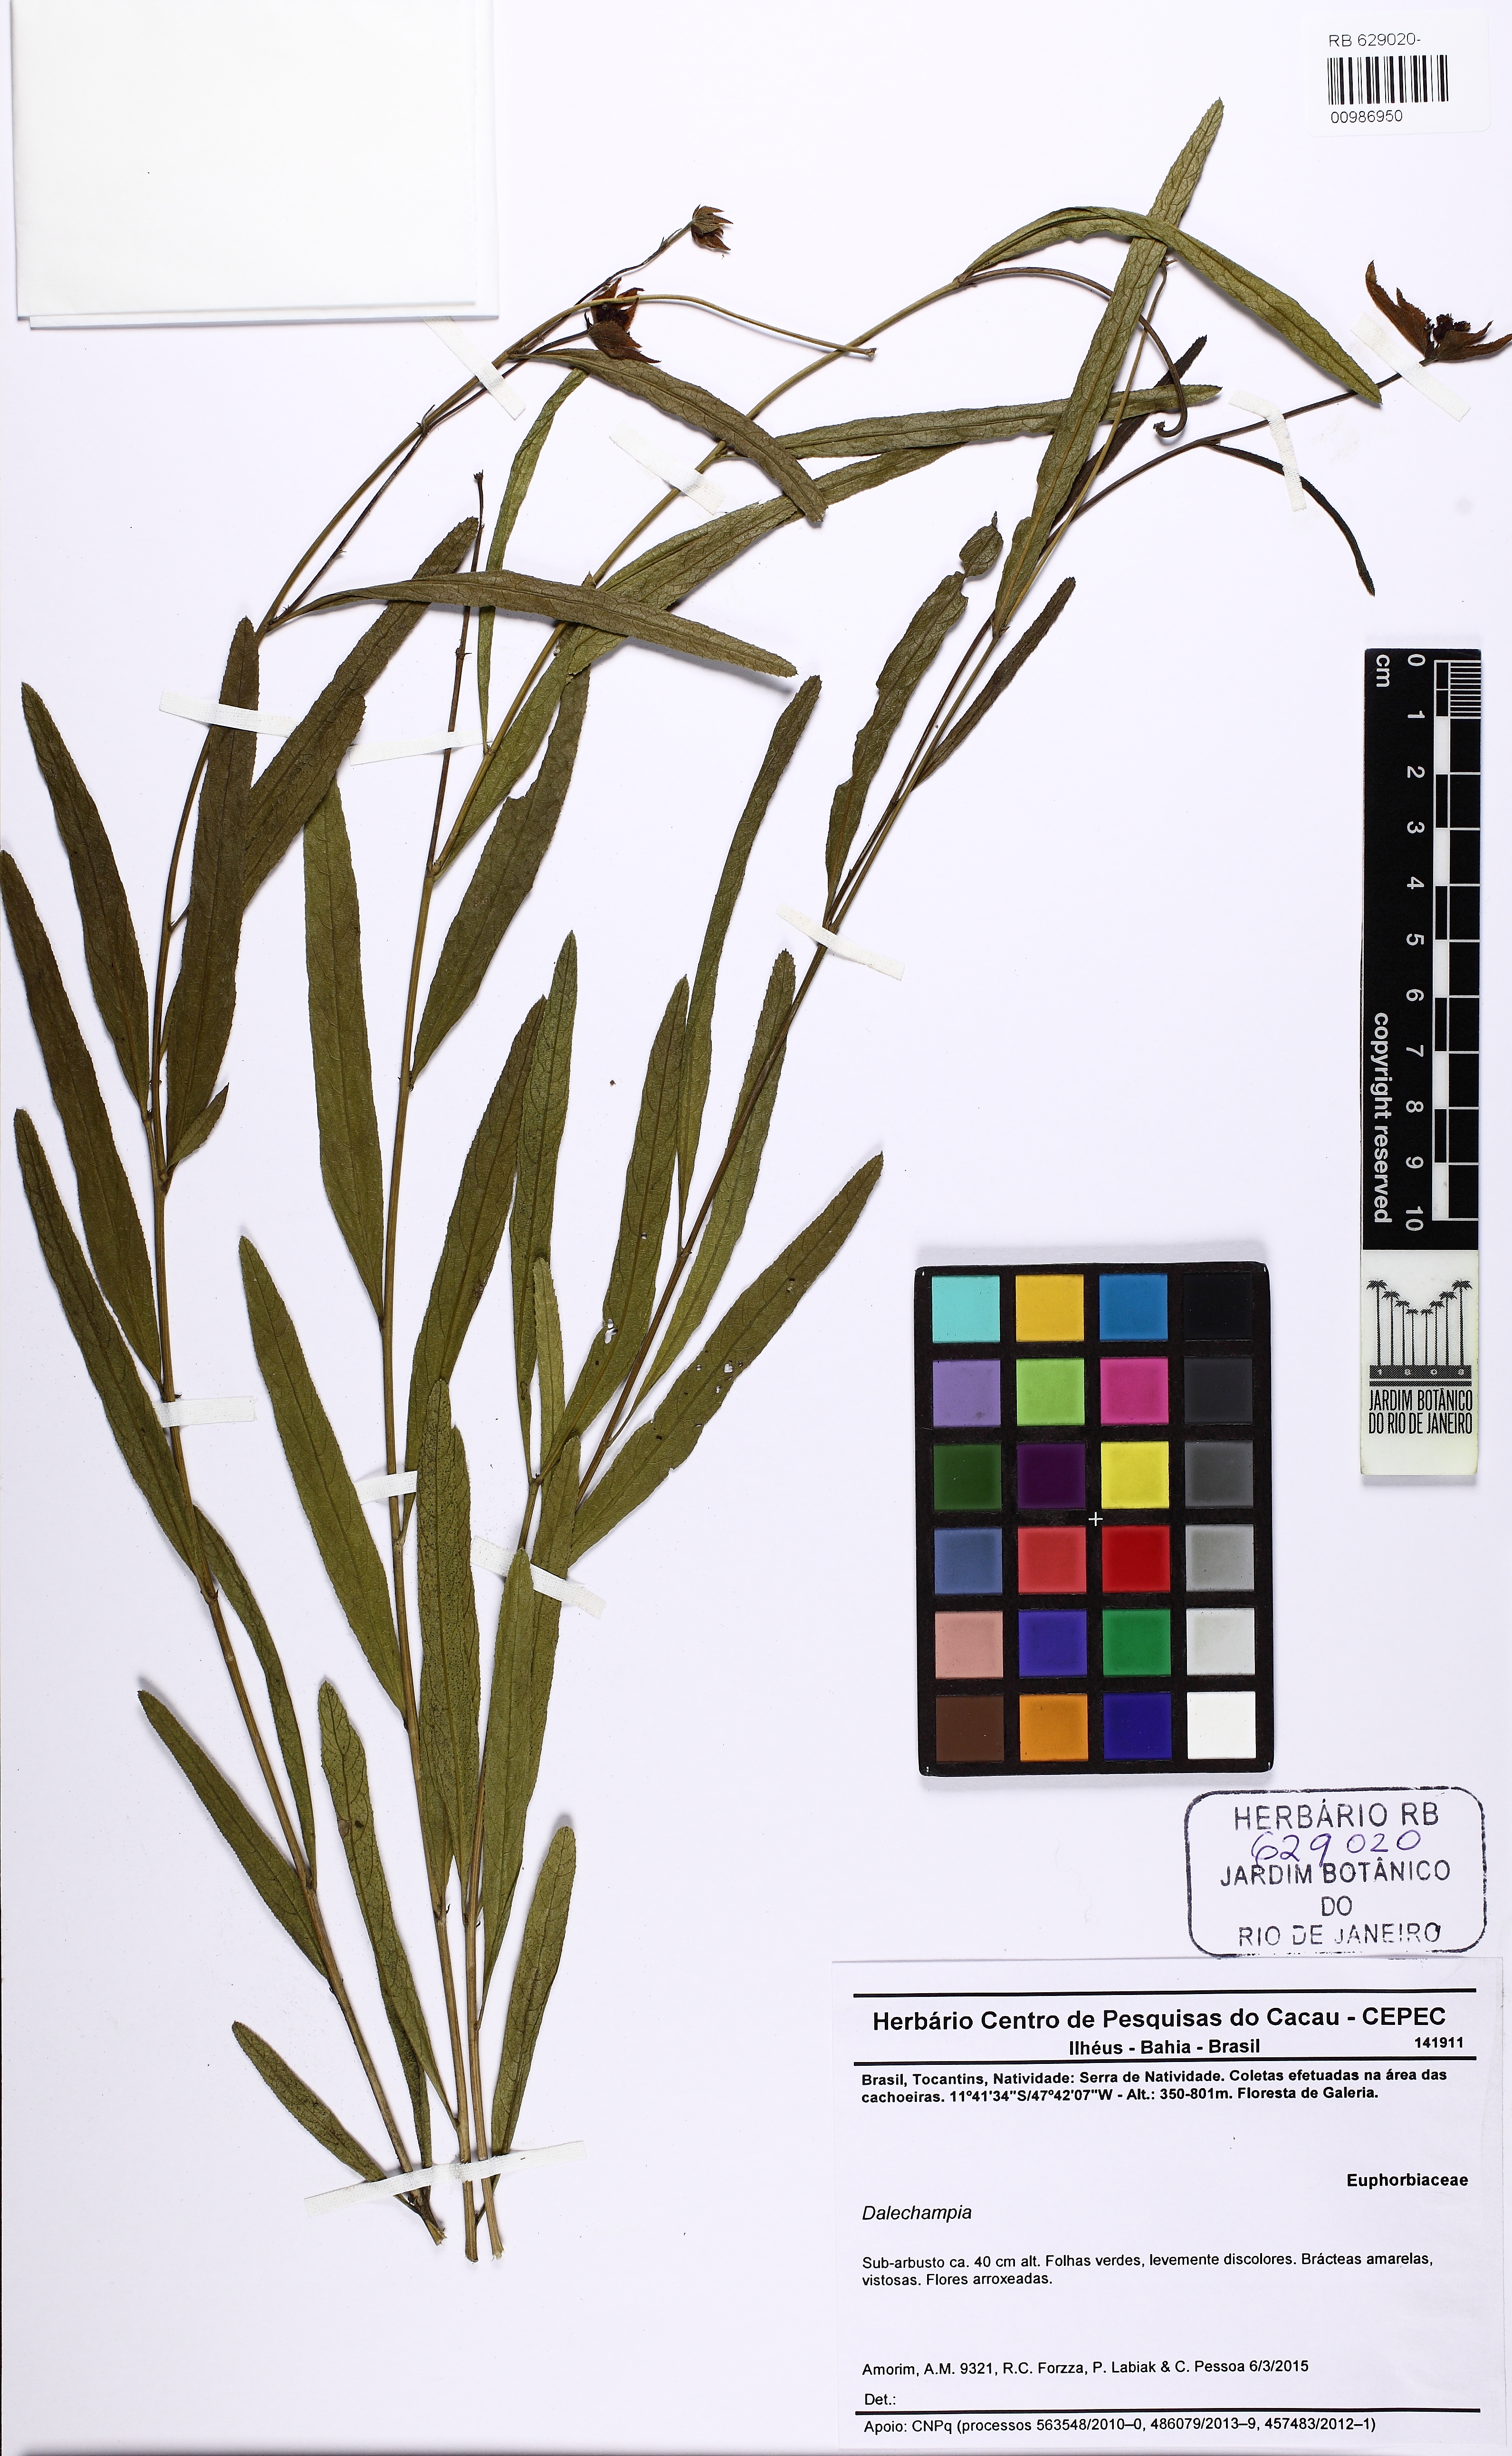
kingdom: Plantae
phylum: Tracheophyta
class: Magnoliopsida
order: Malpighiales
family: Euphorbiaceae
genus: Dalechampia
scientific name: Dalechampia linearis
